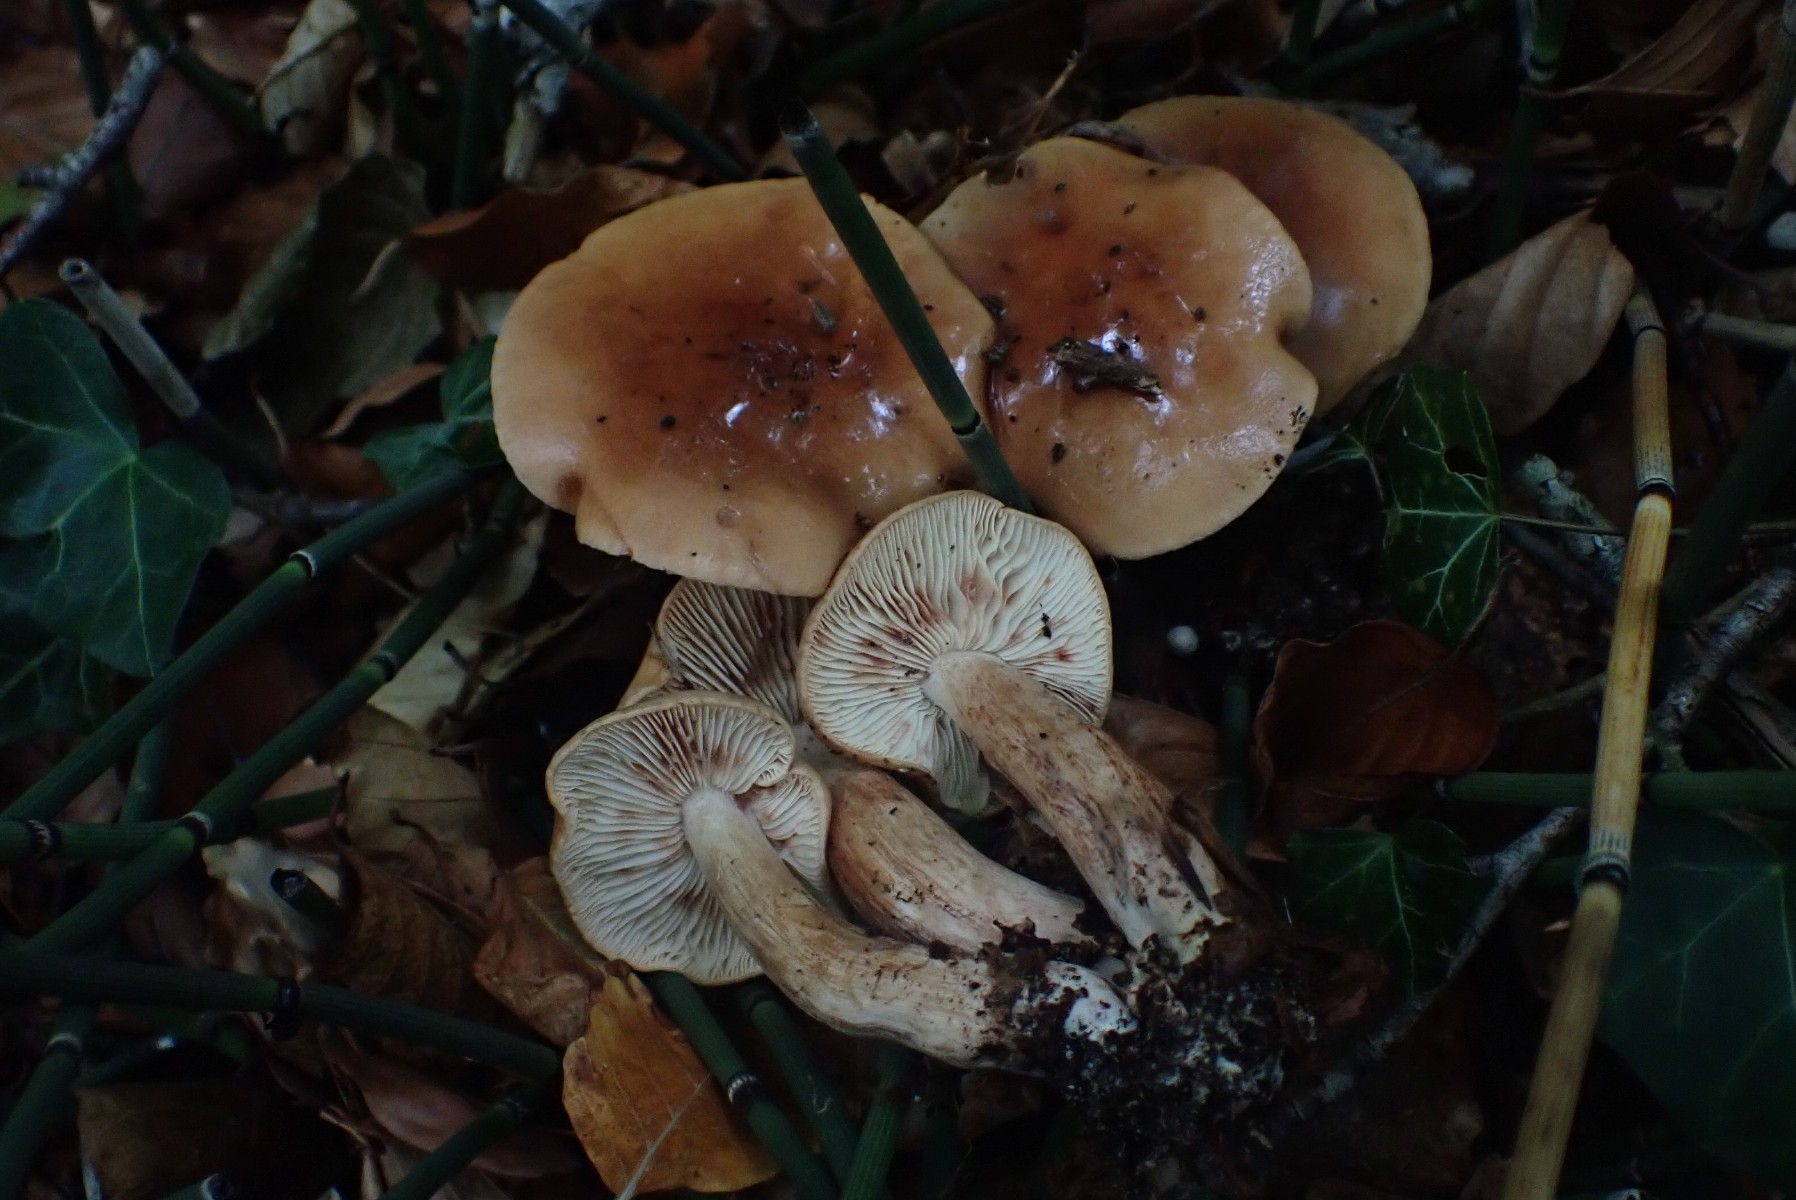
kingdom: Fungi
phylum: Basidiomycota
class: Agaricomycetes
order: Agaricales
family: Tricholomataceae
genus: Tricholoma
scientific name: Tricholoma ustale
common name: sveden ridderhat
